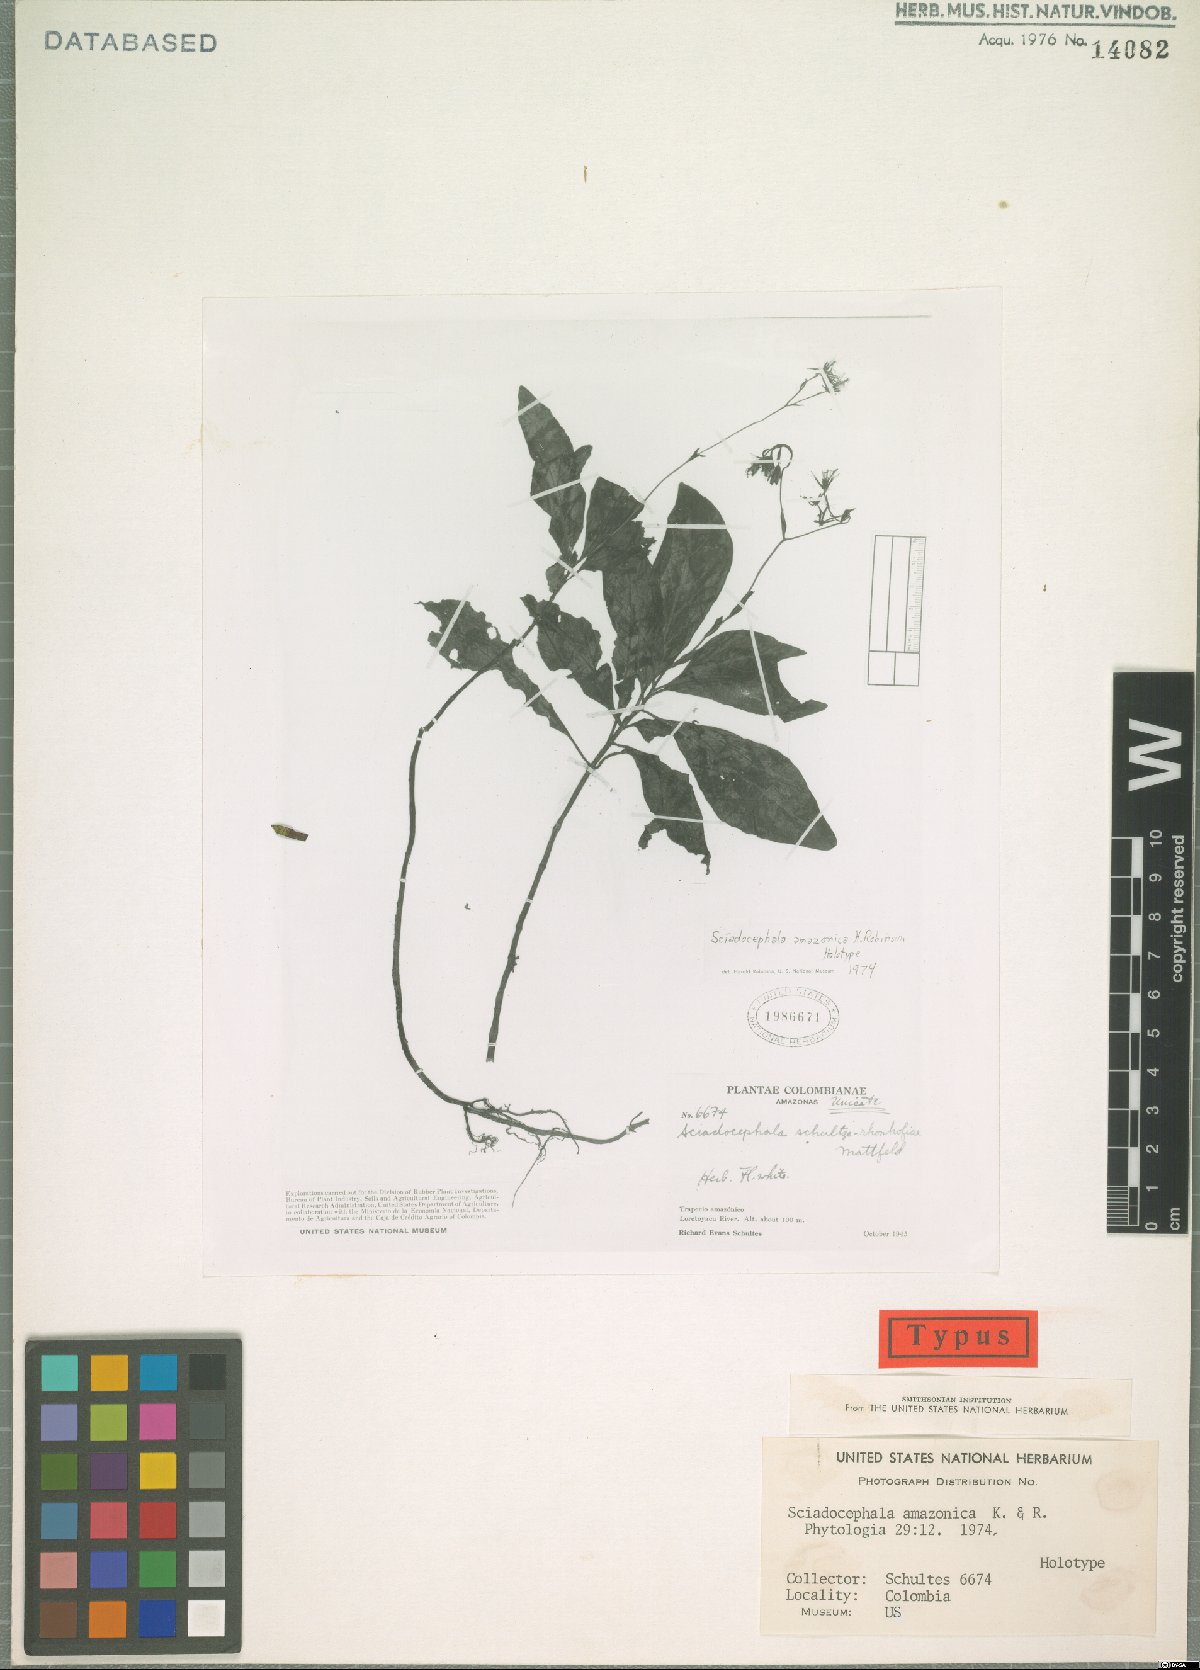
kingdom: Plantae
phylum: Tracheophyta
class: Magnoliopsida
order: Asterales
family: Asteraceae
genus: Sciadocephala
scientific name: Sciadocephala amazonica
